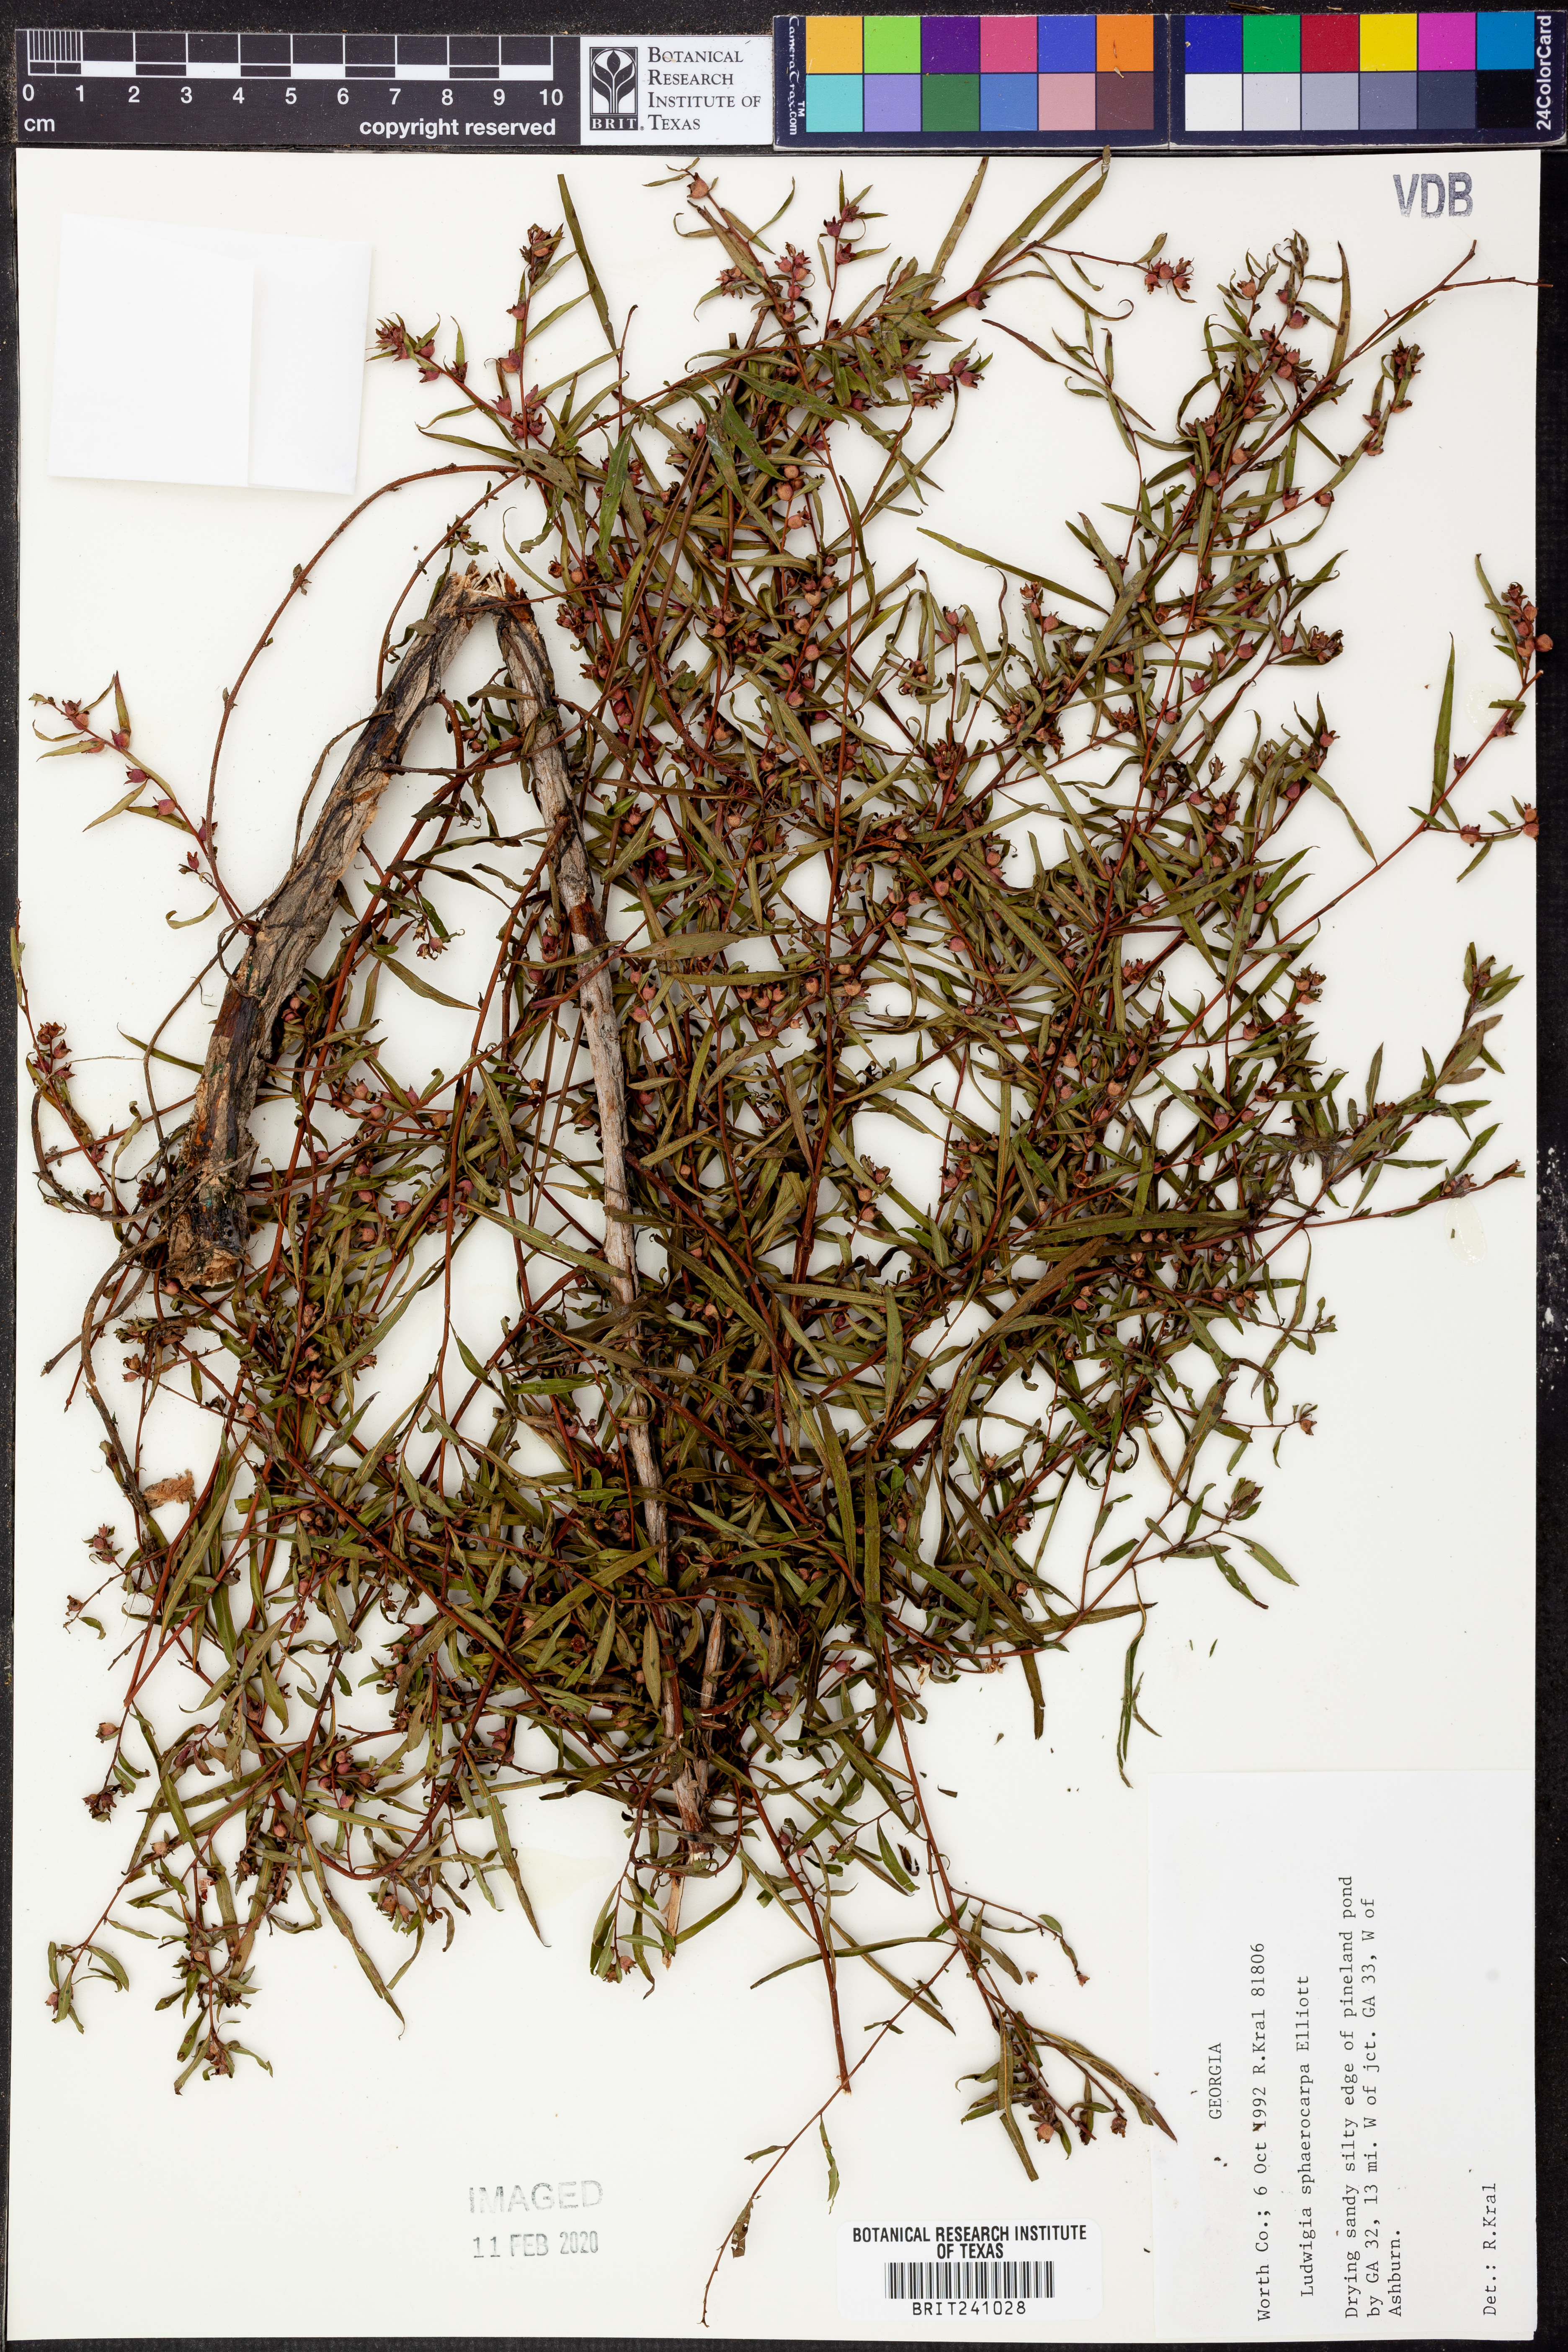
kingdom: Plantae
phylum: Tracheophyta
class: Magnoliopsida
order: Myrtales
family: Onagraceae
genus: Ludwigia
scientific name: Ludwigia sphaerocarpa
